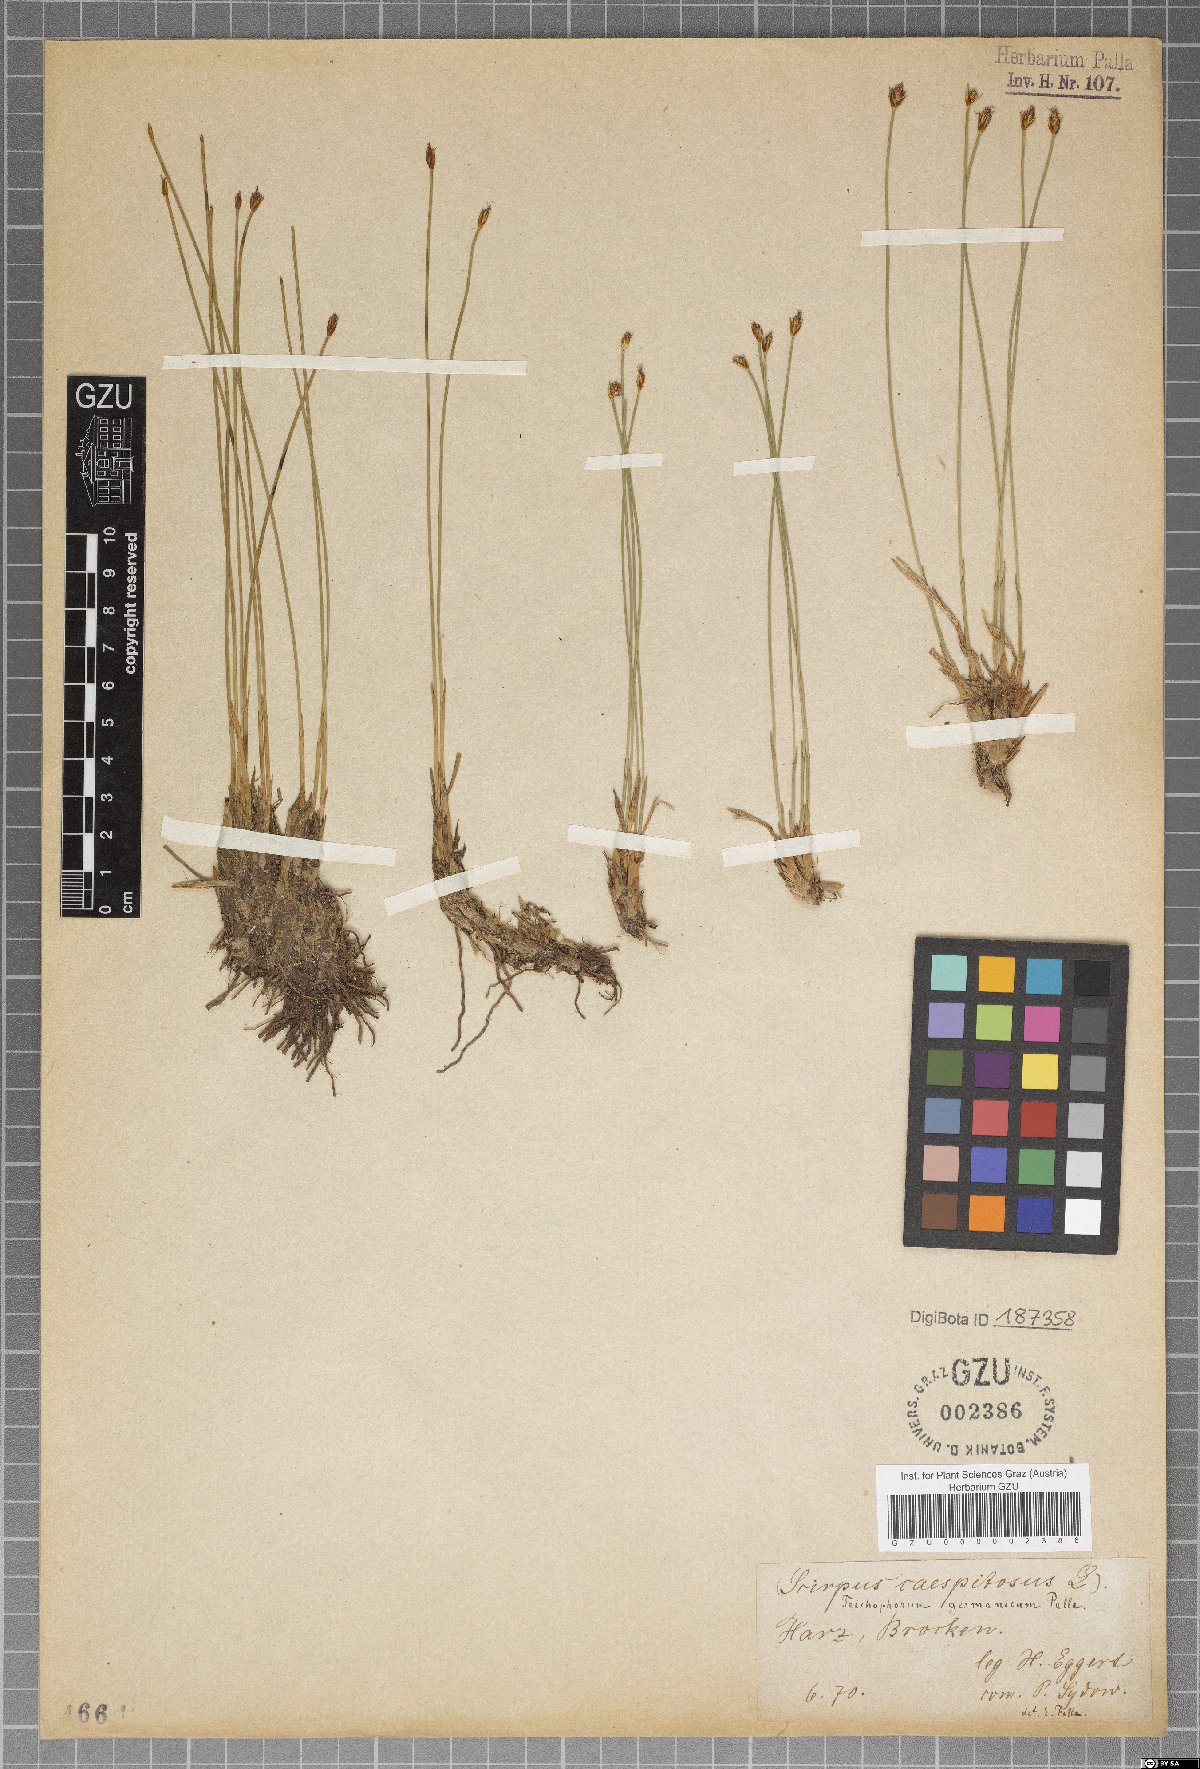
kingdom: Plantae
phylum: Tracheophyta
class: Liliopsida
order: Poales
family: Cyperaceae
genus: Trichophorum
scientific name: Trichophorum cespitosum
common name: Cespitose bulrush
